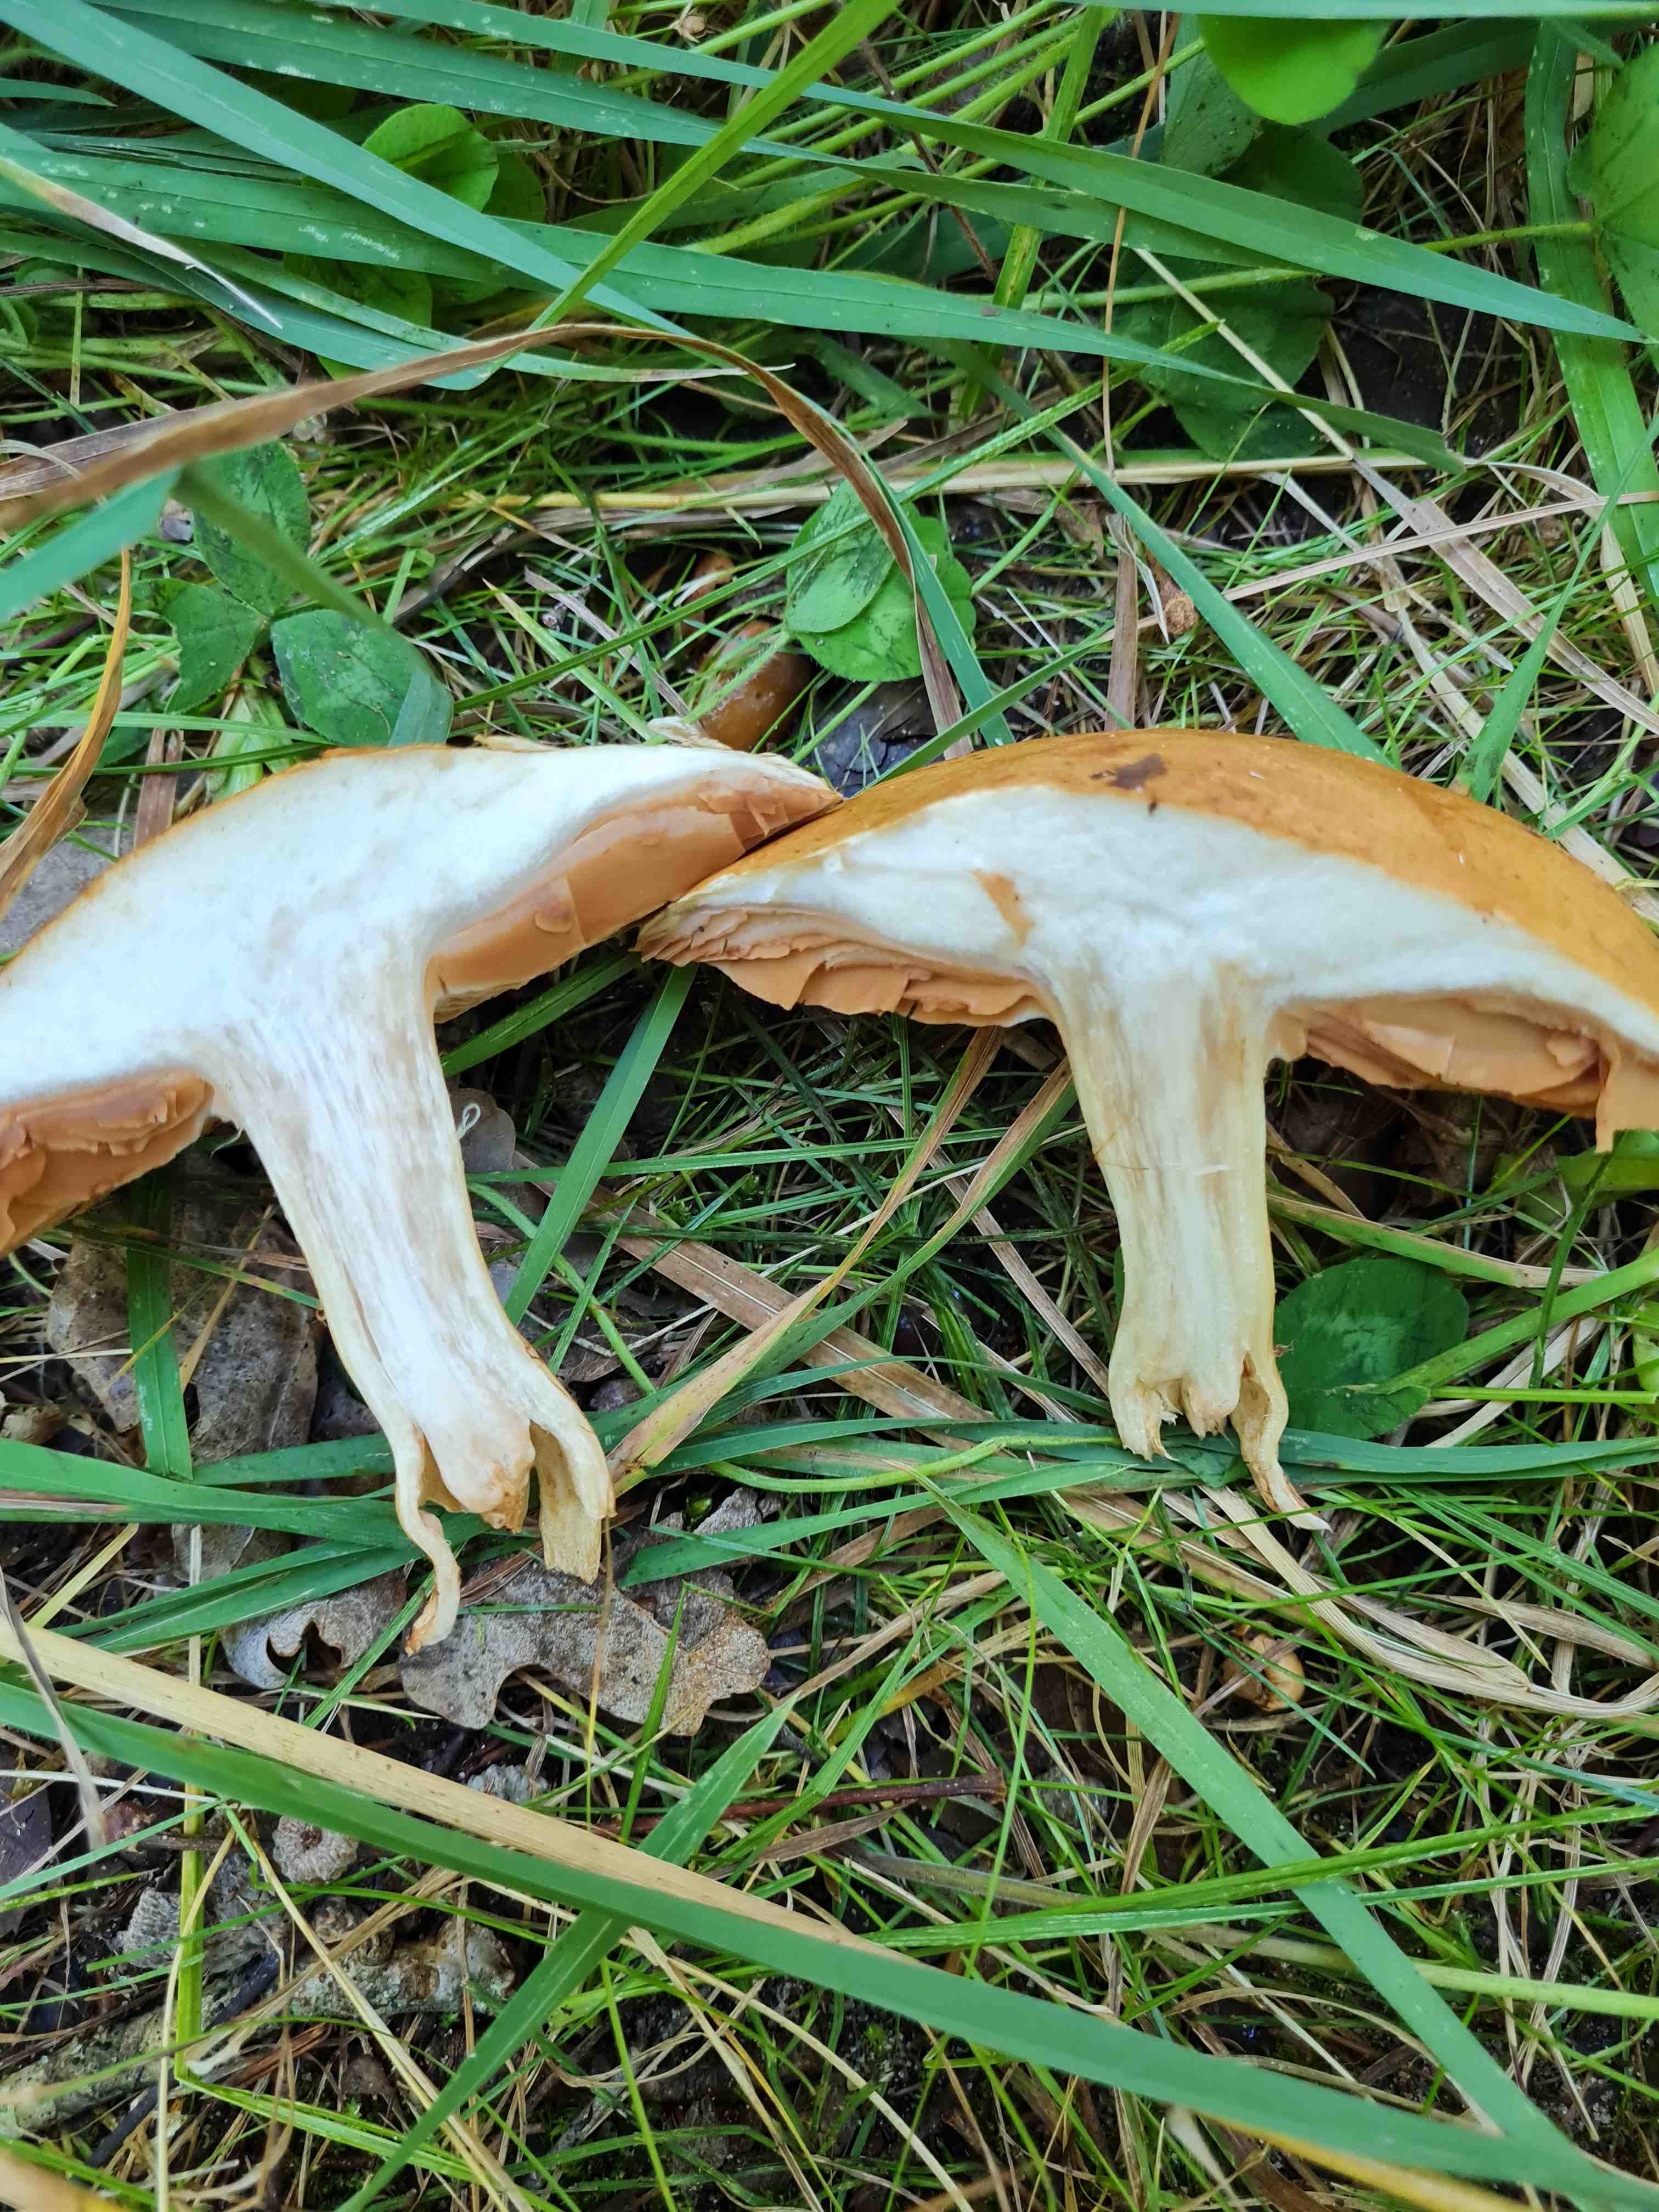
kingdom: Fungi
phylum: Basidiomycota
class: Agaricomycetes
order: Agaricales
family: Cortinariaceae
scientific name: Cortinariaceae
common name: slørhatfamilien
